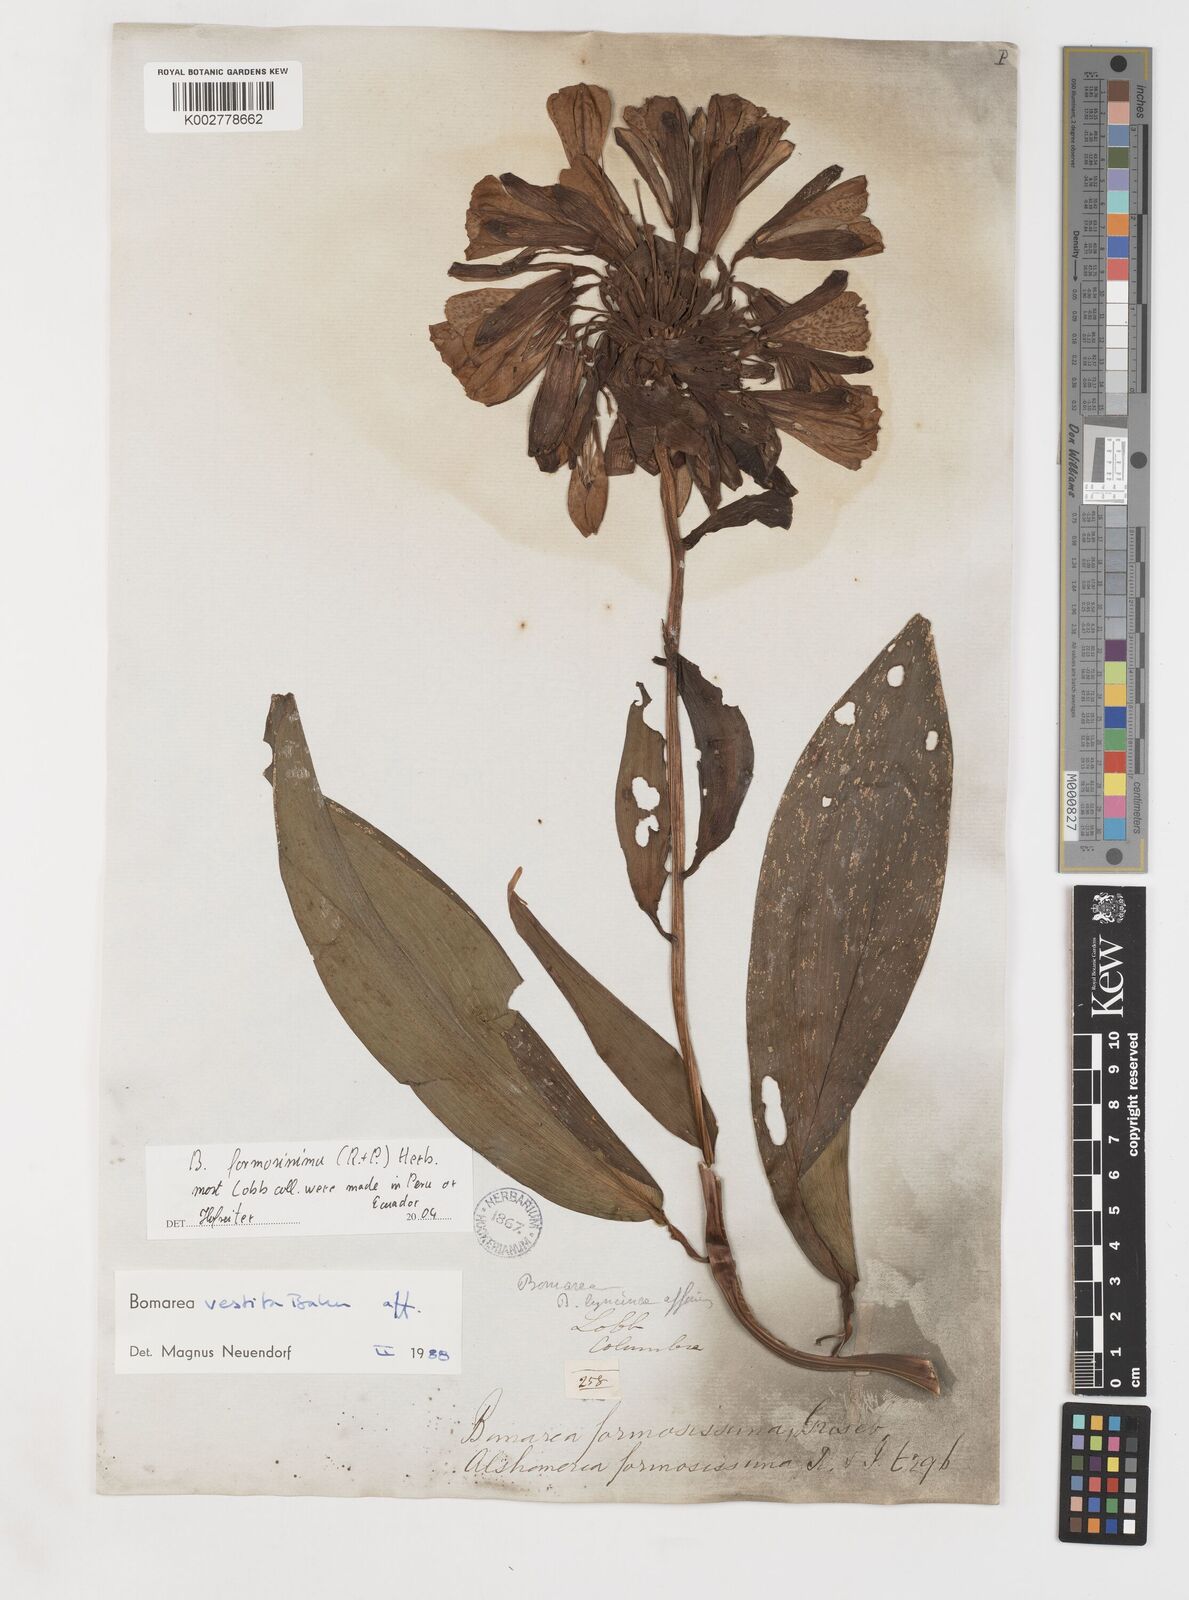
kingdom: Plantae
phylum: Tracheophyta
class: Liliopsida
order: Liliales
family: Alstroemeriaceae
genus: Bomarea
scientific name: Bomarea formosissima
